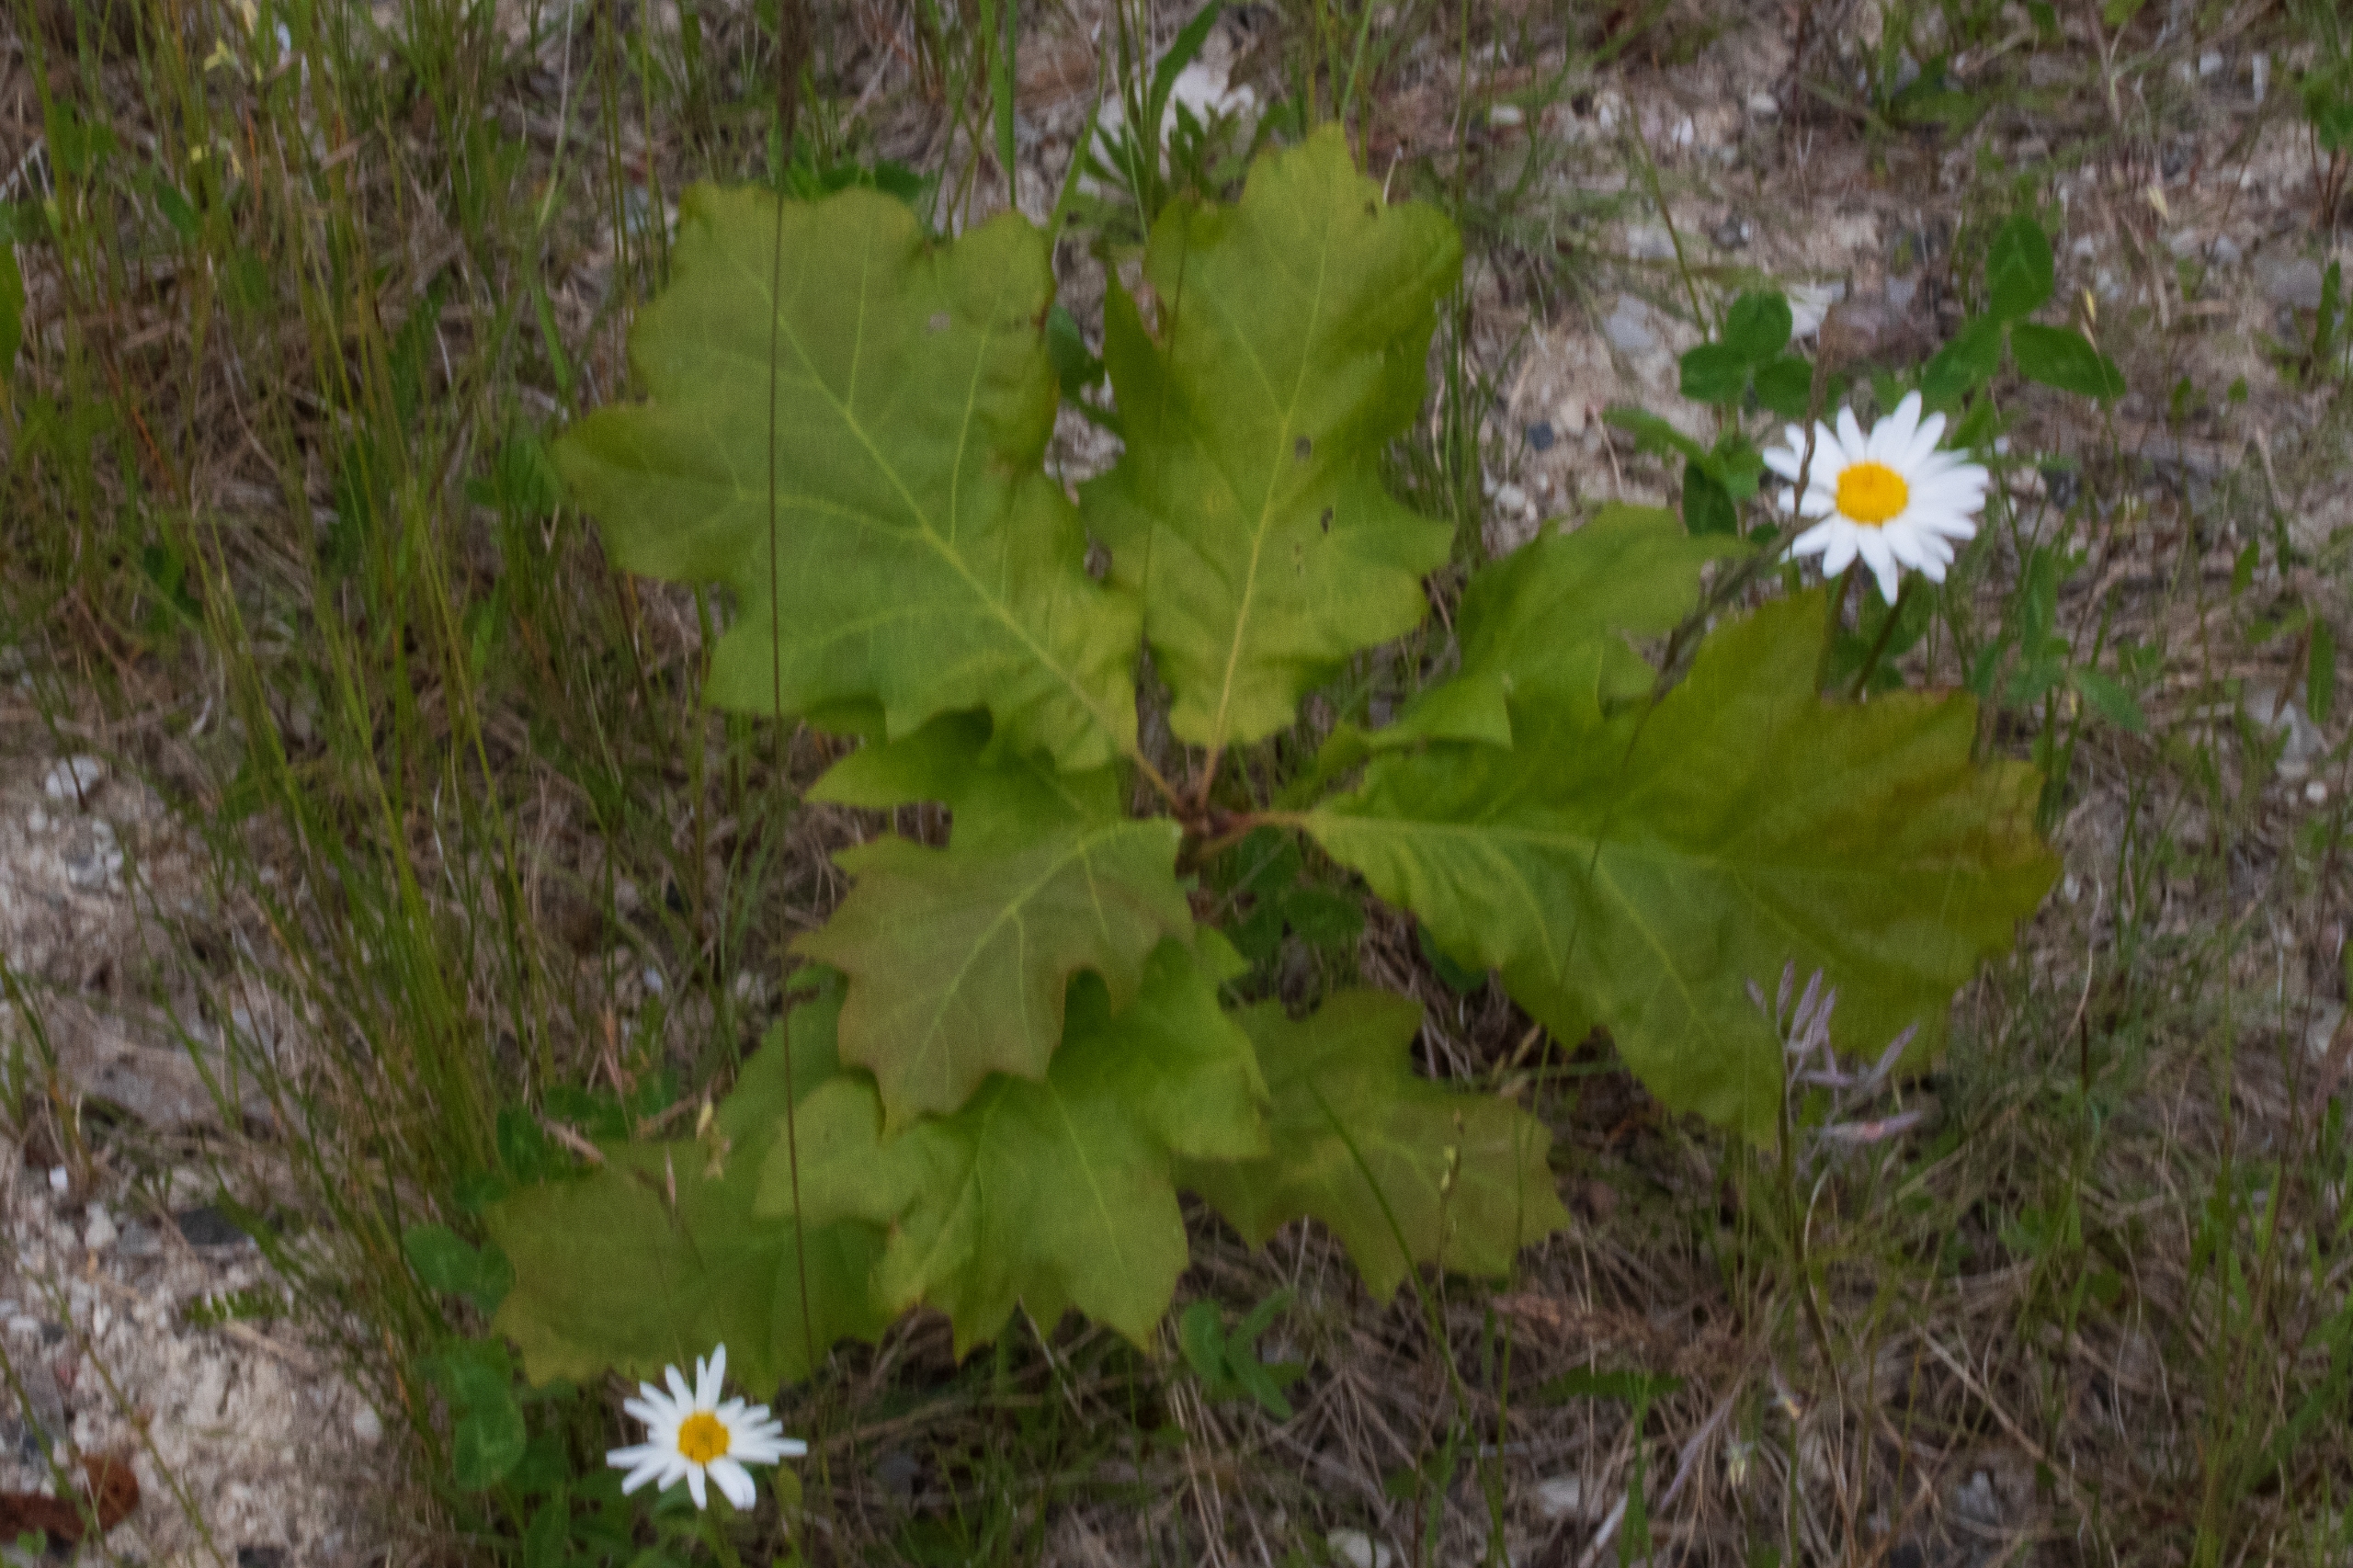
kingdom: Plantae
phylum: Tracheophyta
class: Magnoliopsida
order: Fagales
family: Fagaceae
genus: Quercus
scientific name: Quercus rubra
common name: Rød-eg
